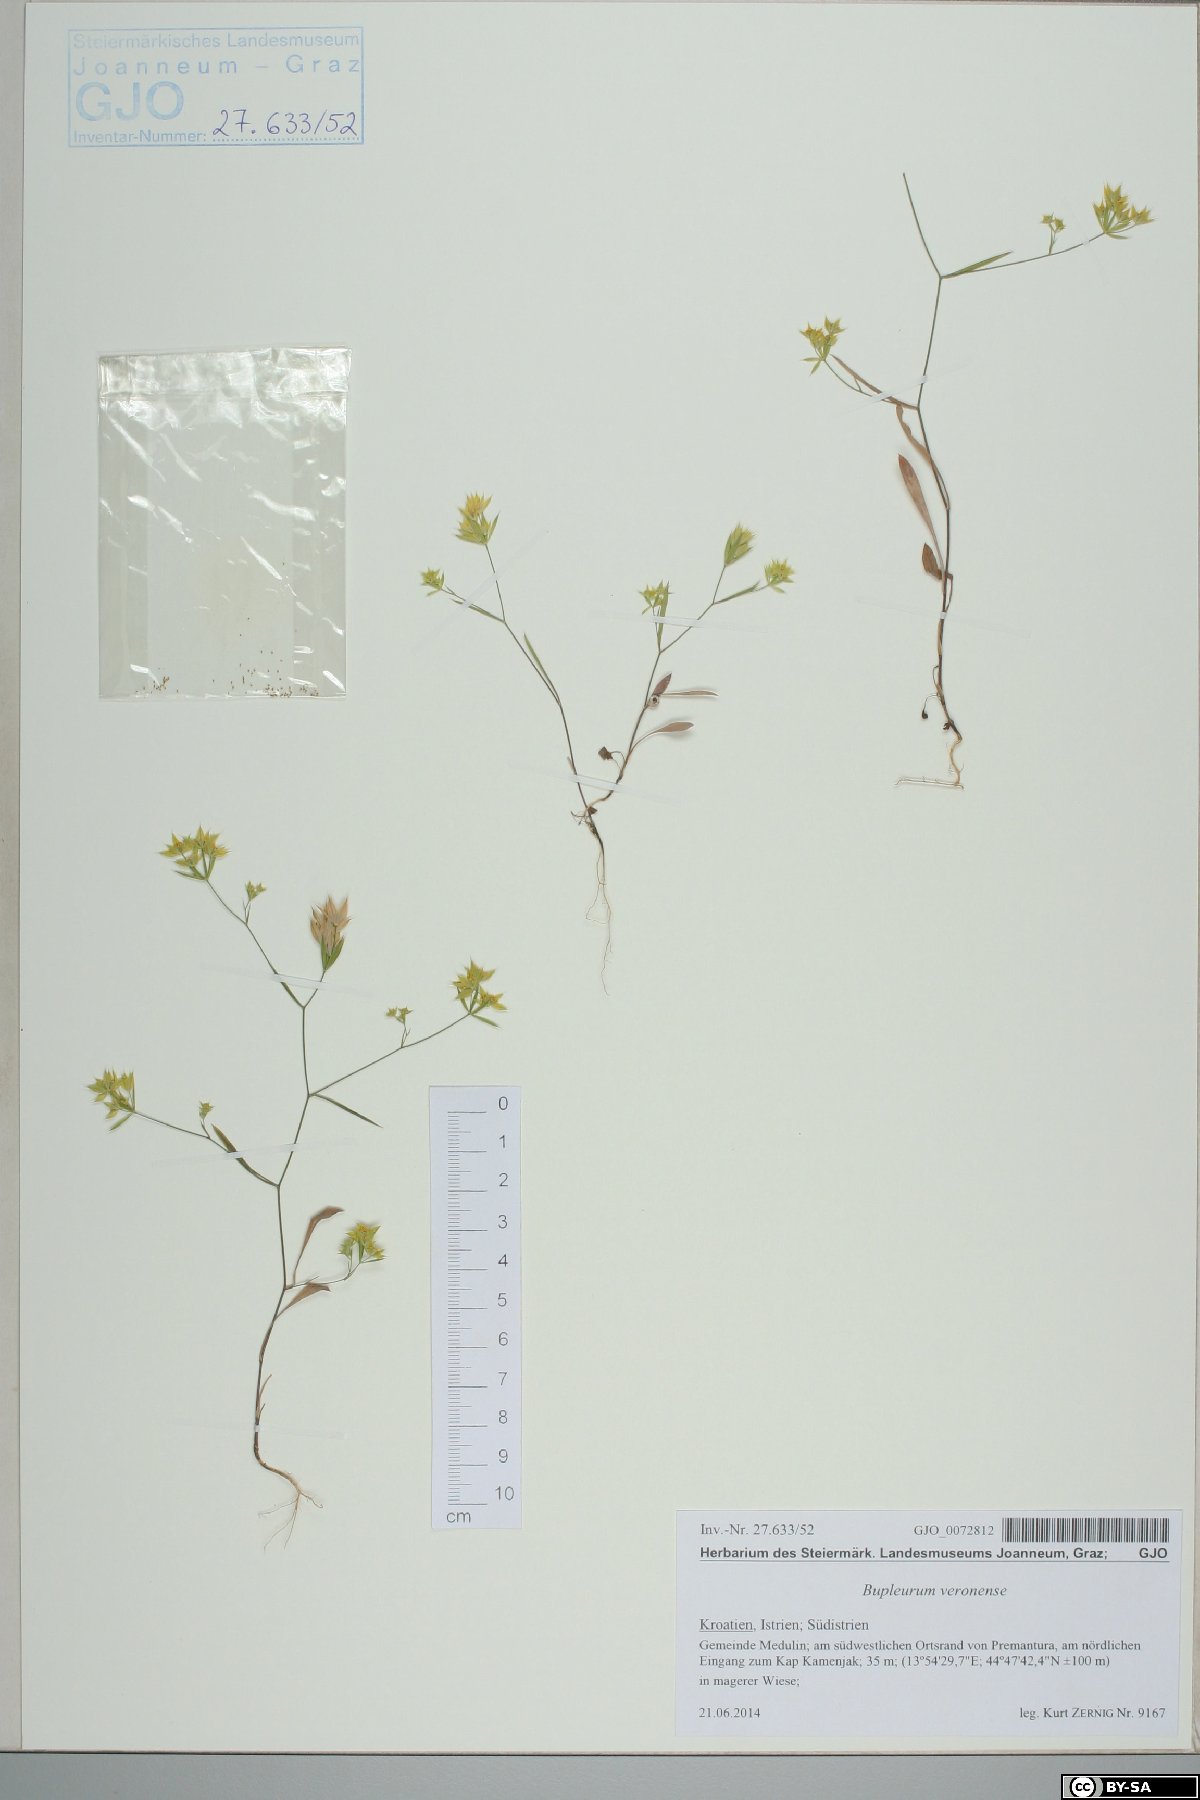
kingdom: Plantae
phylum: Tracheophyta
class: Magnoliopsida
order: Apiales
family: Apiaceae
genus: Bupleurum
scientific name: Bupleurum veronense
